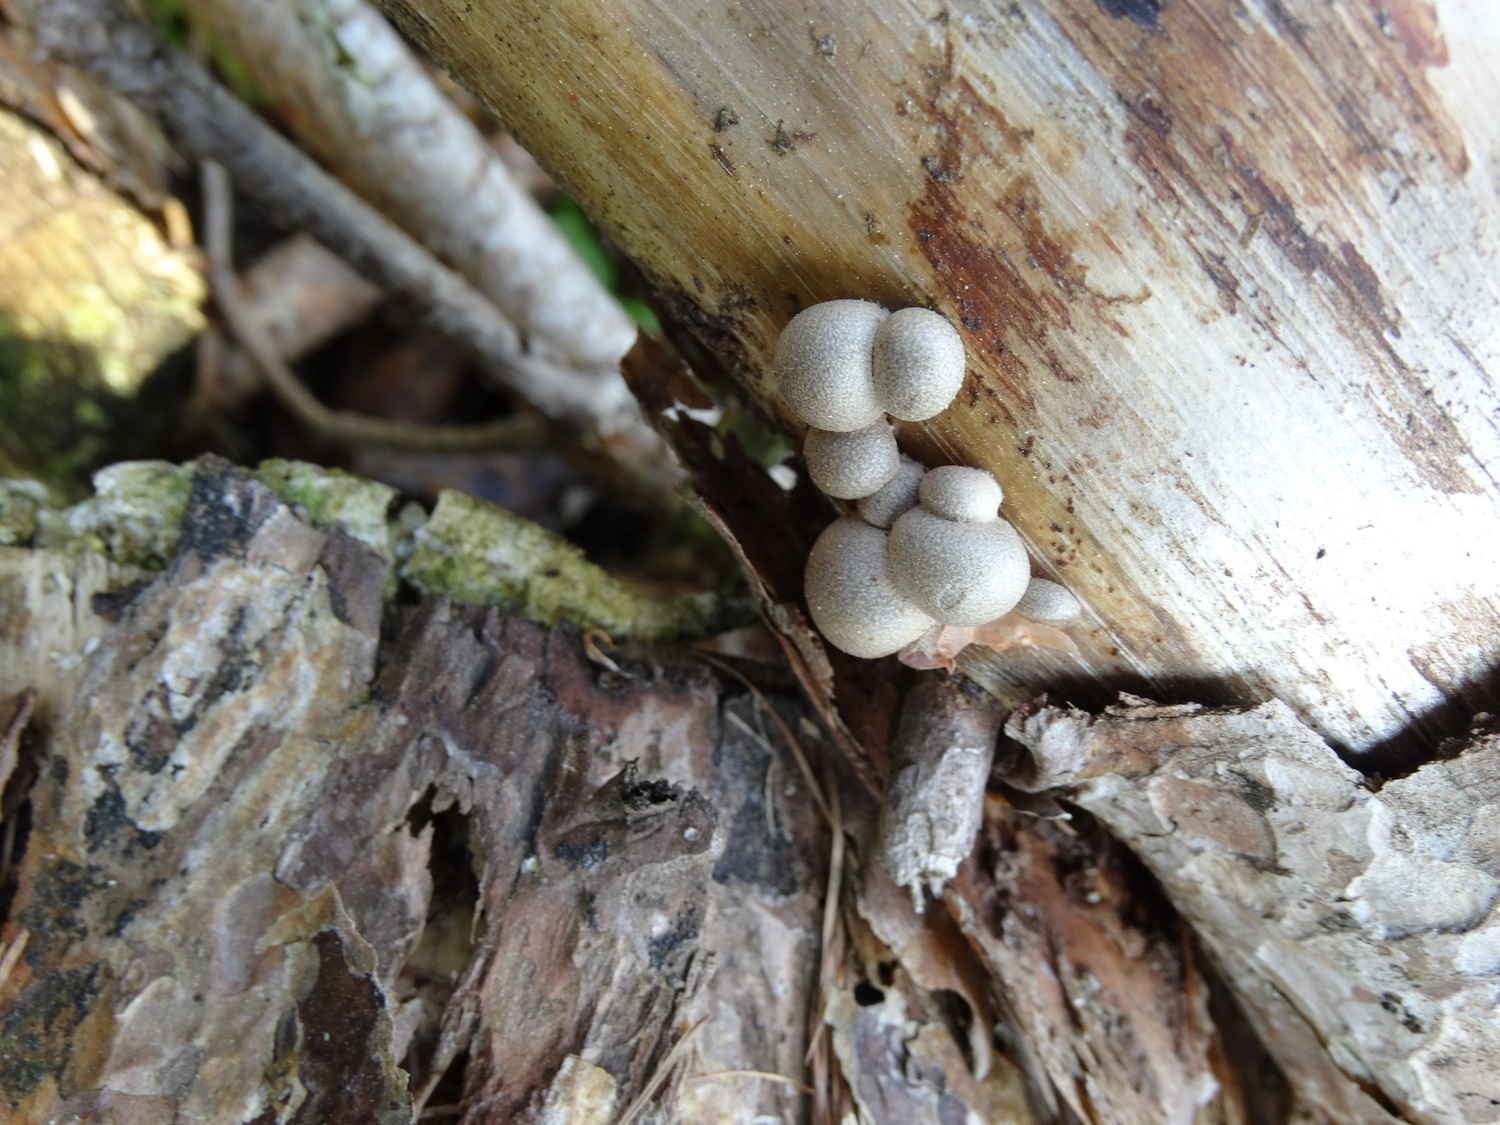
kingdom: Protozoa
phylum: Mycetozoa
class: Myxomycetes
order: Cribrariales
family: Tubiferaceae
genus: Lycogala
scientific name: Lycogala epidendrum
